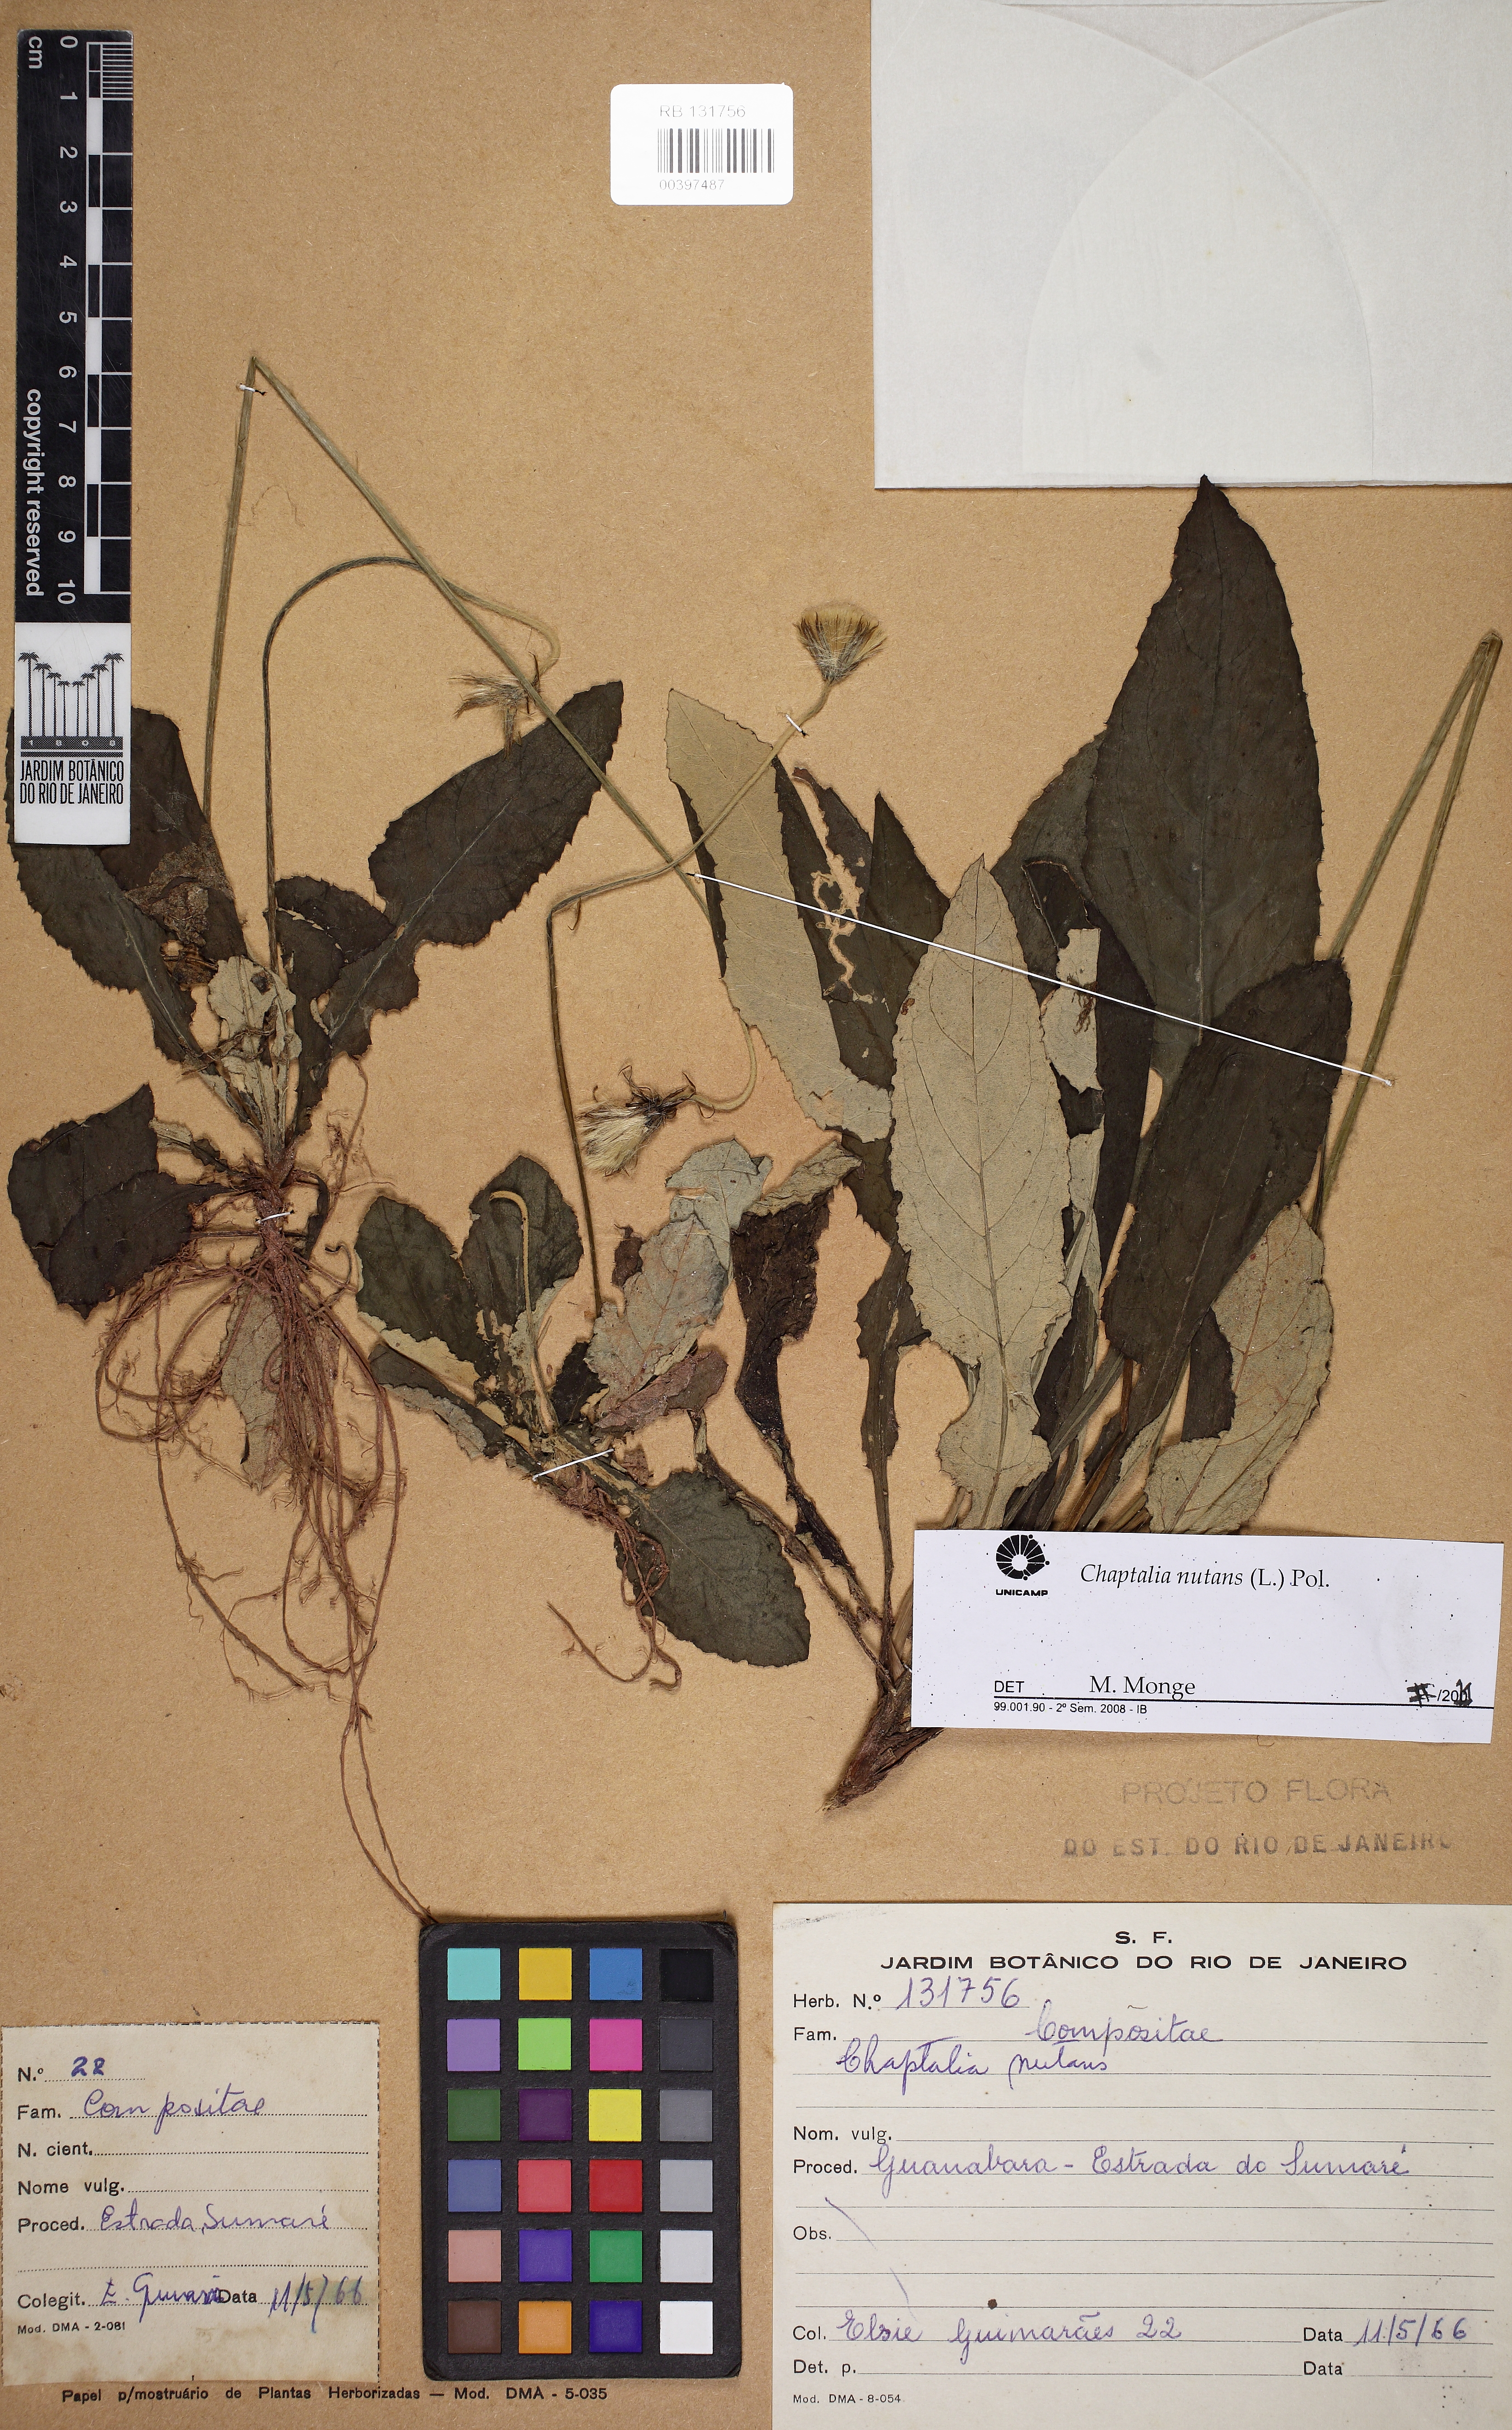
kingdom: Plantae
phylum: Tracheophyta
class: Magnoliopsida
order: Asterales
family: Asteraceae
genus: Chaptalia
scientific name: Chaptalia nutans
